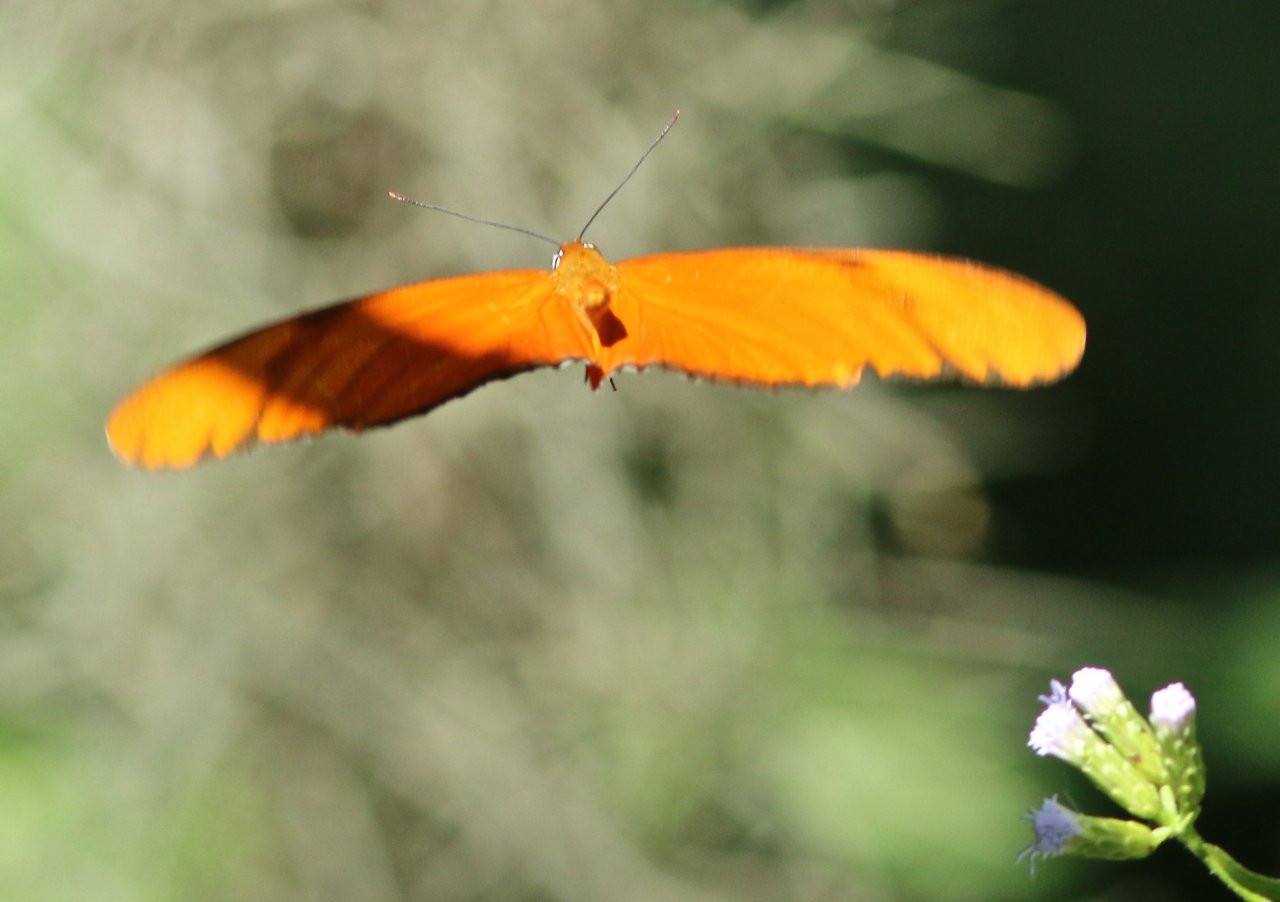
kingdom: Animalia
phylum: Arthropoda
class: Insecta
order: Lepidoptera
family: Nymphalidae
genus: Dryas
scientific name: Dryas iulia
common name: Julia
